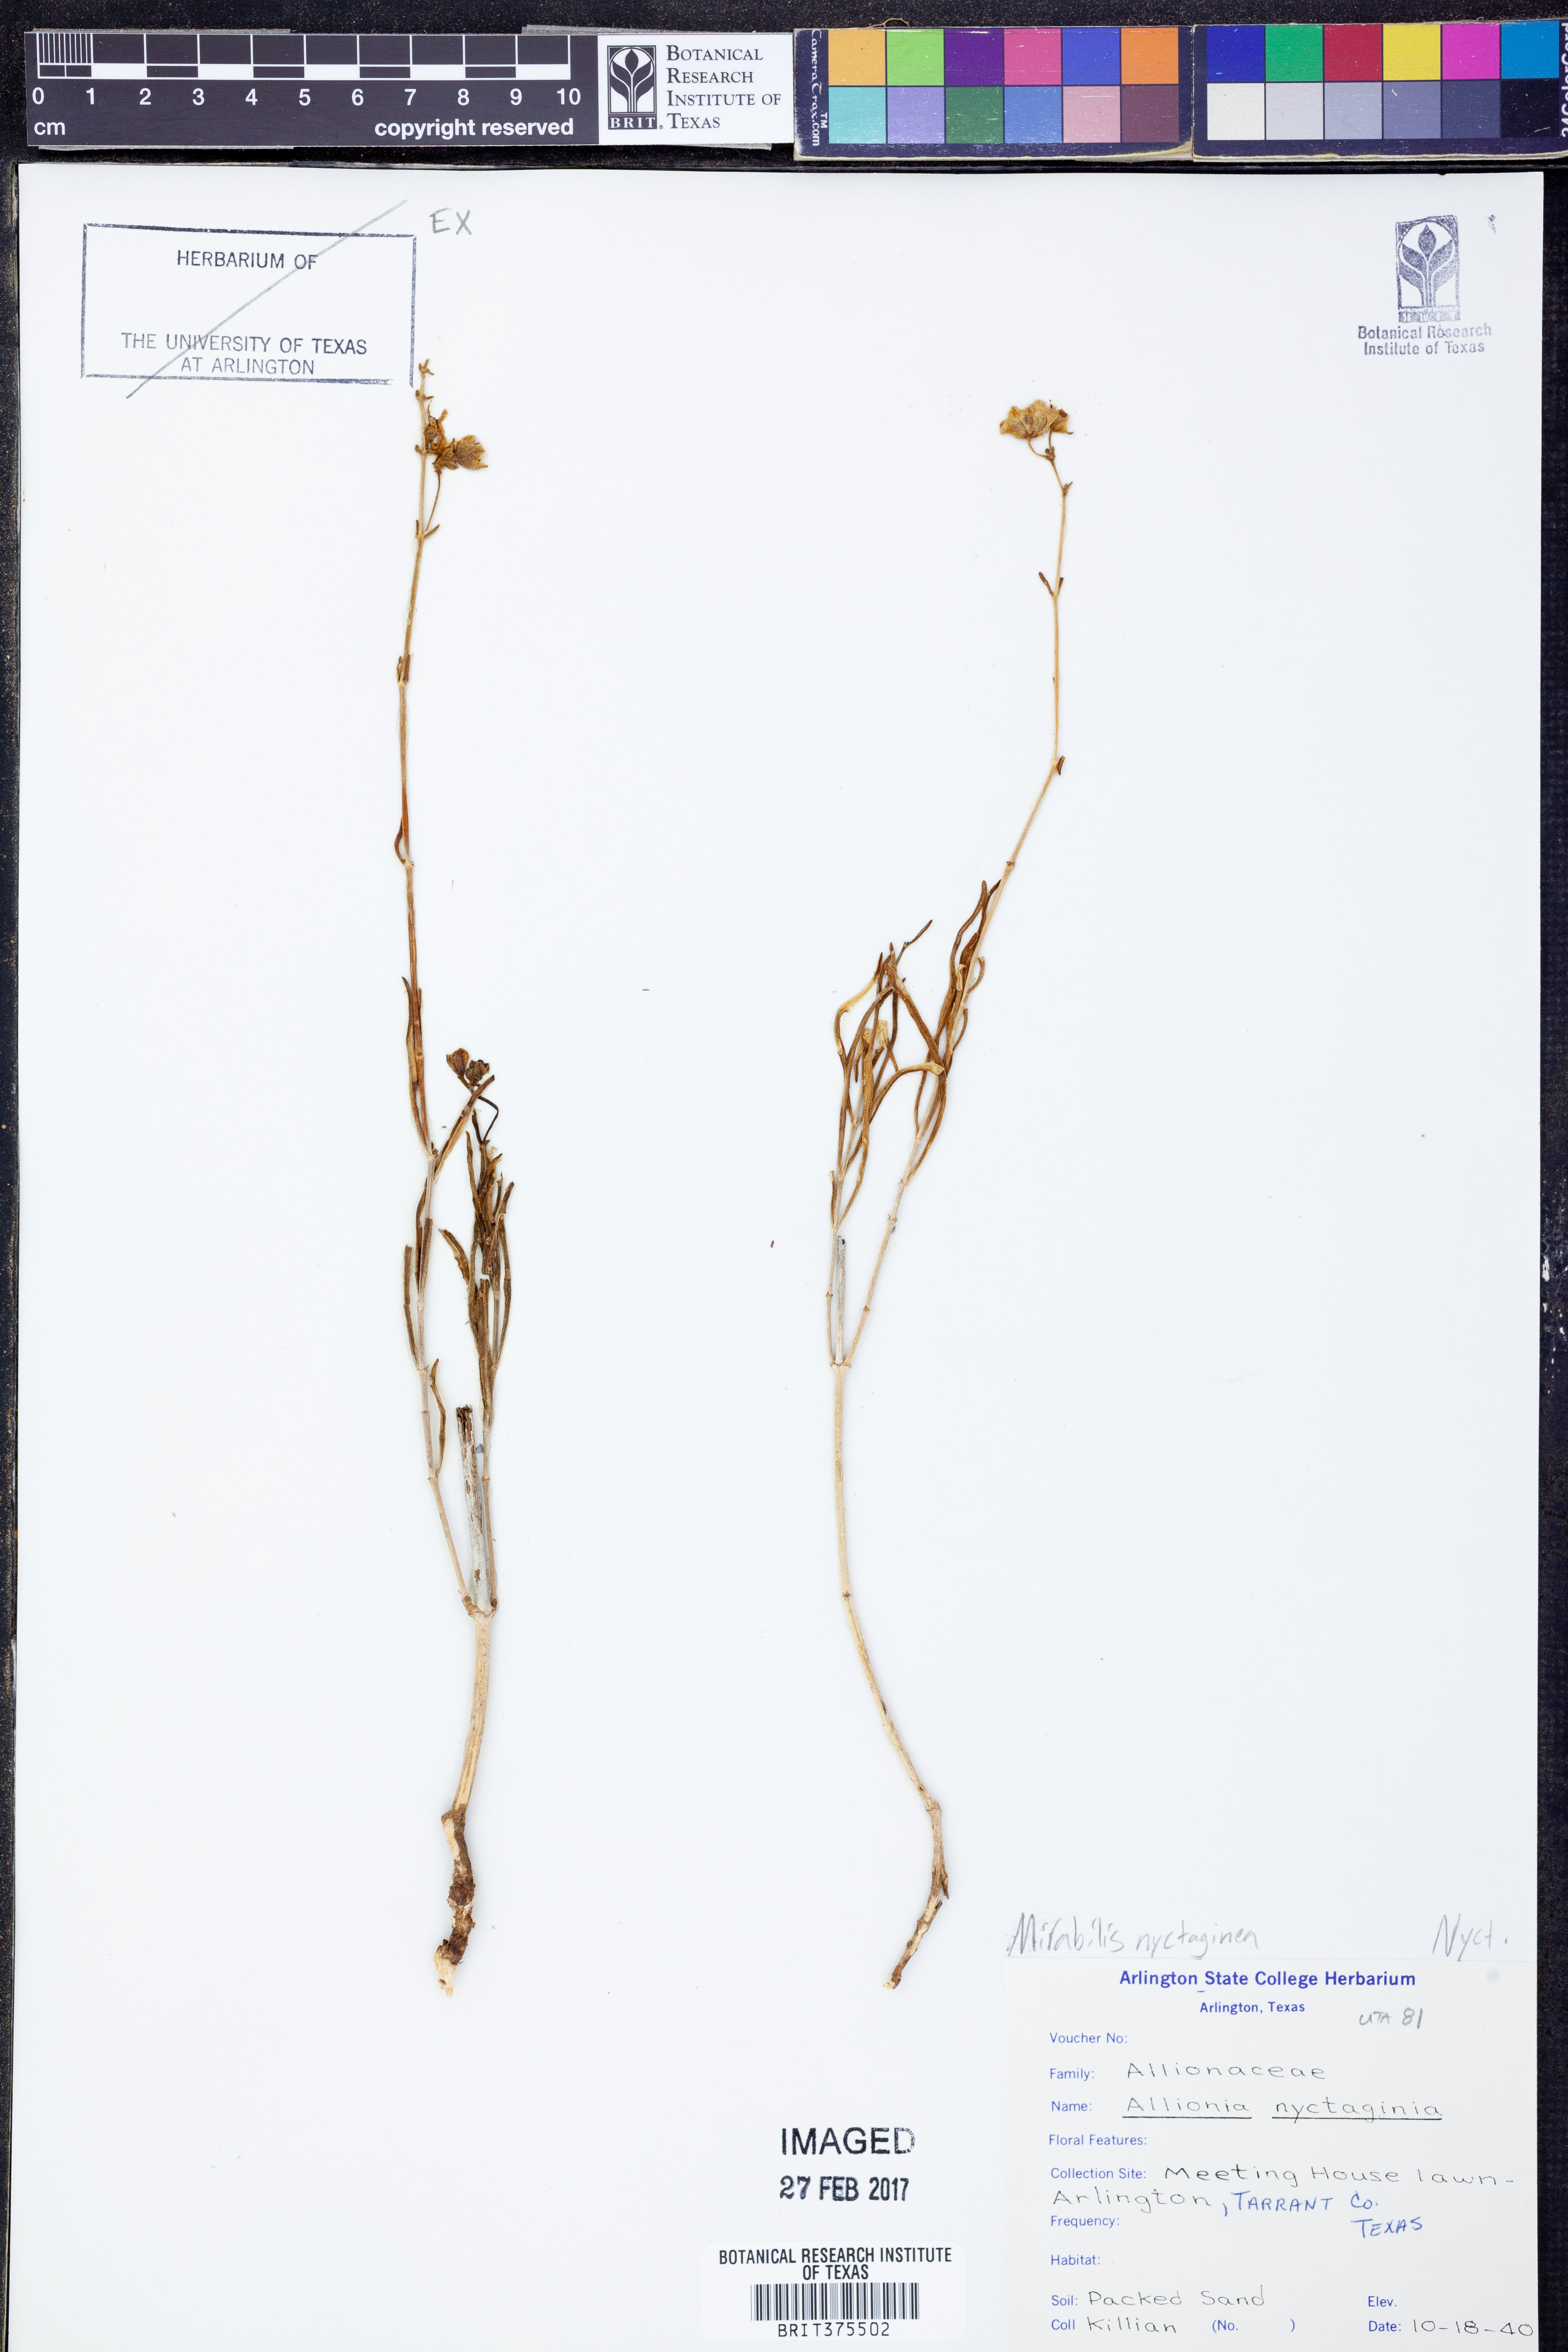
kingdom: Plantae
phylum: Tracheophyta
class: Magnoliopsida
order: Caryophyllales
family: Nyctaginaceae
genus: Mirabilis
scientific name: Mirabilis nyctaginea
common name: Umbrella wort
